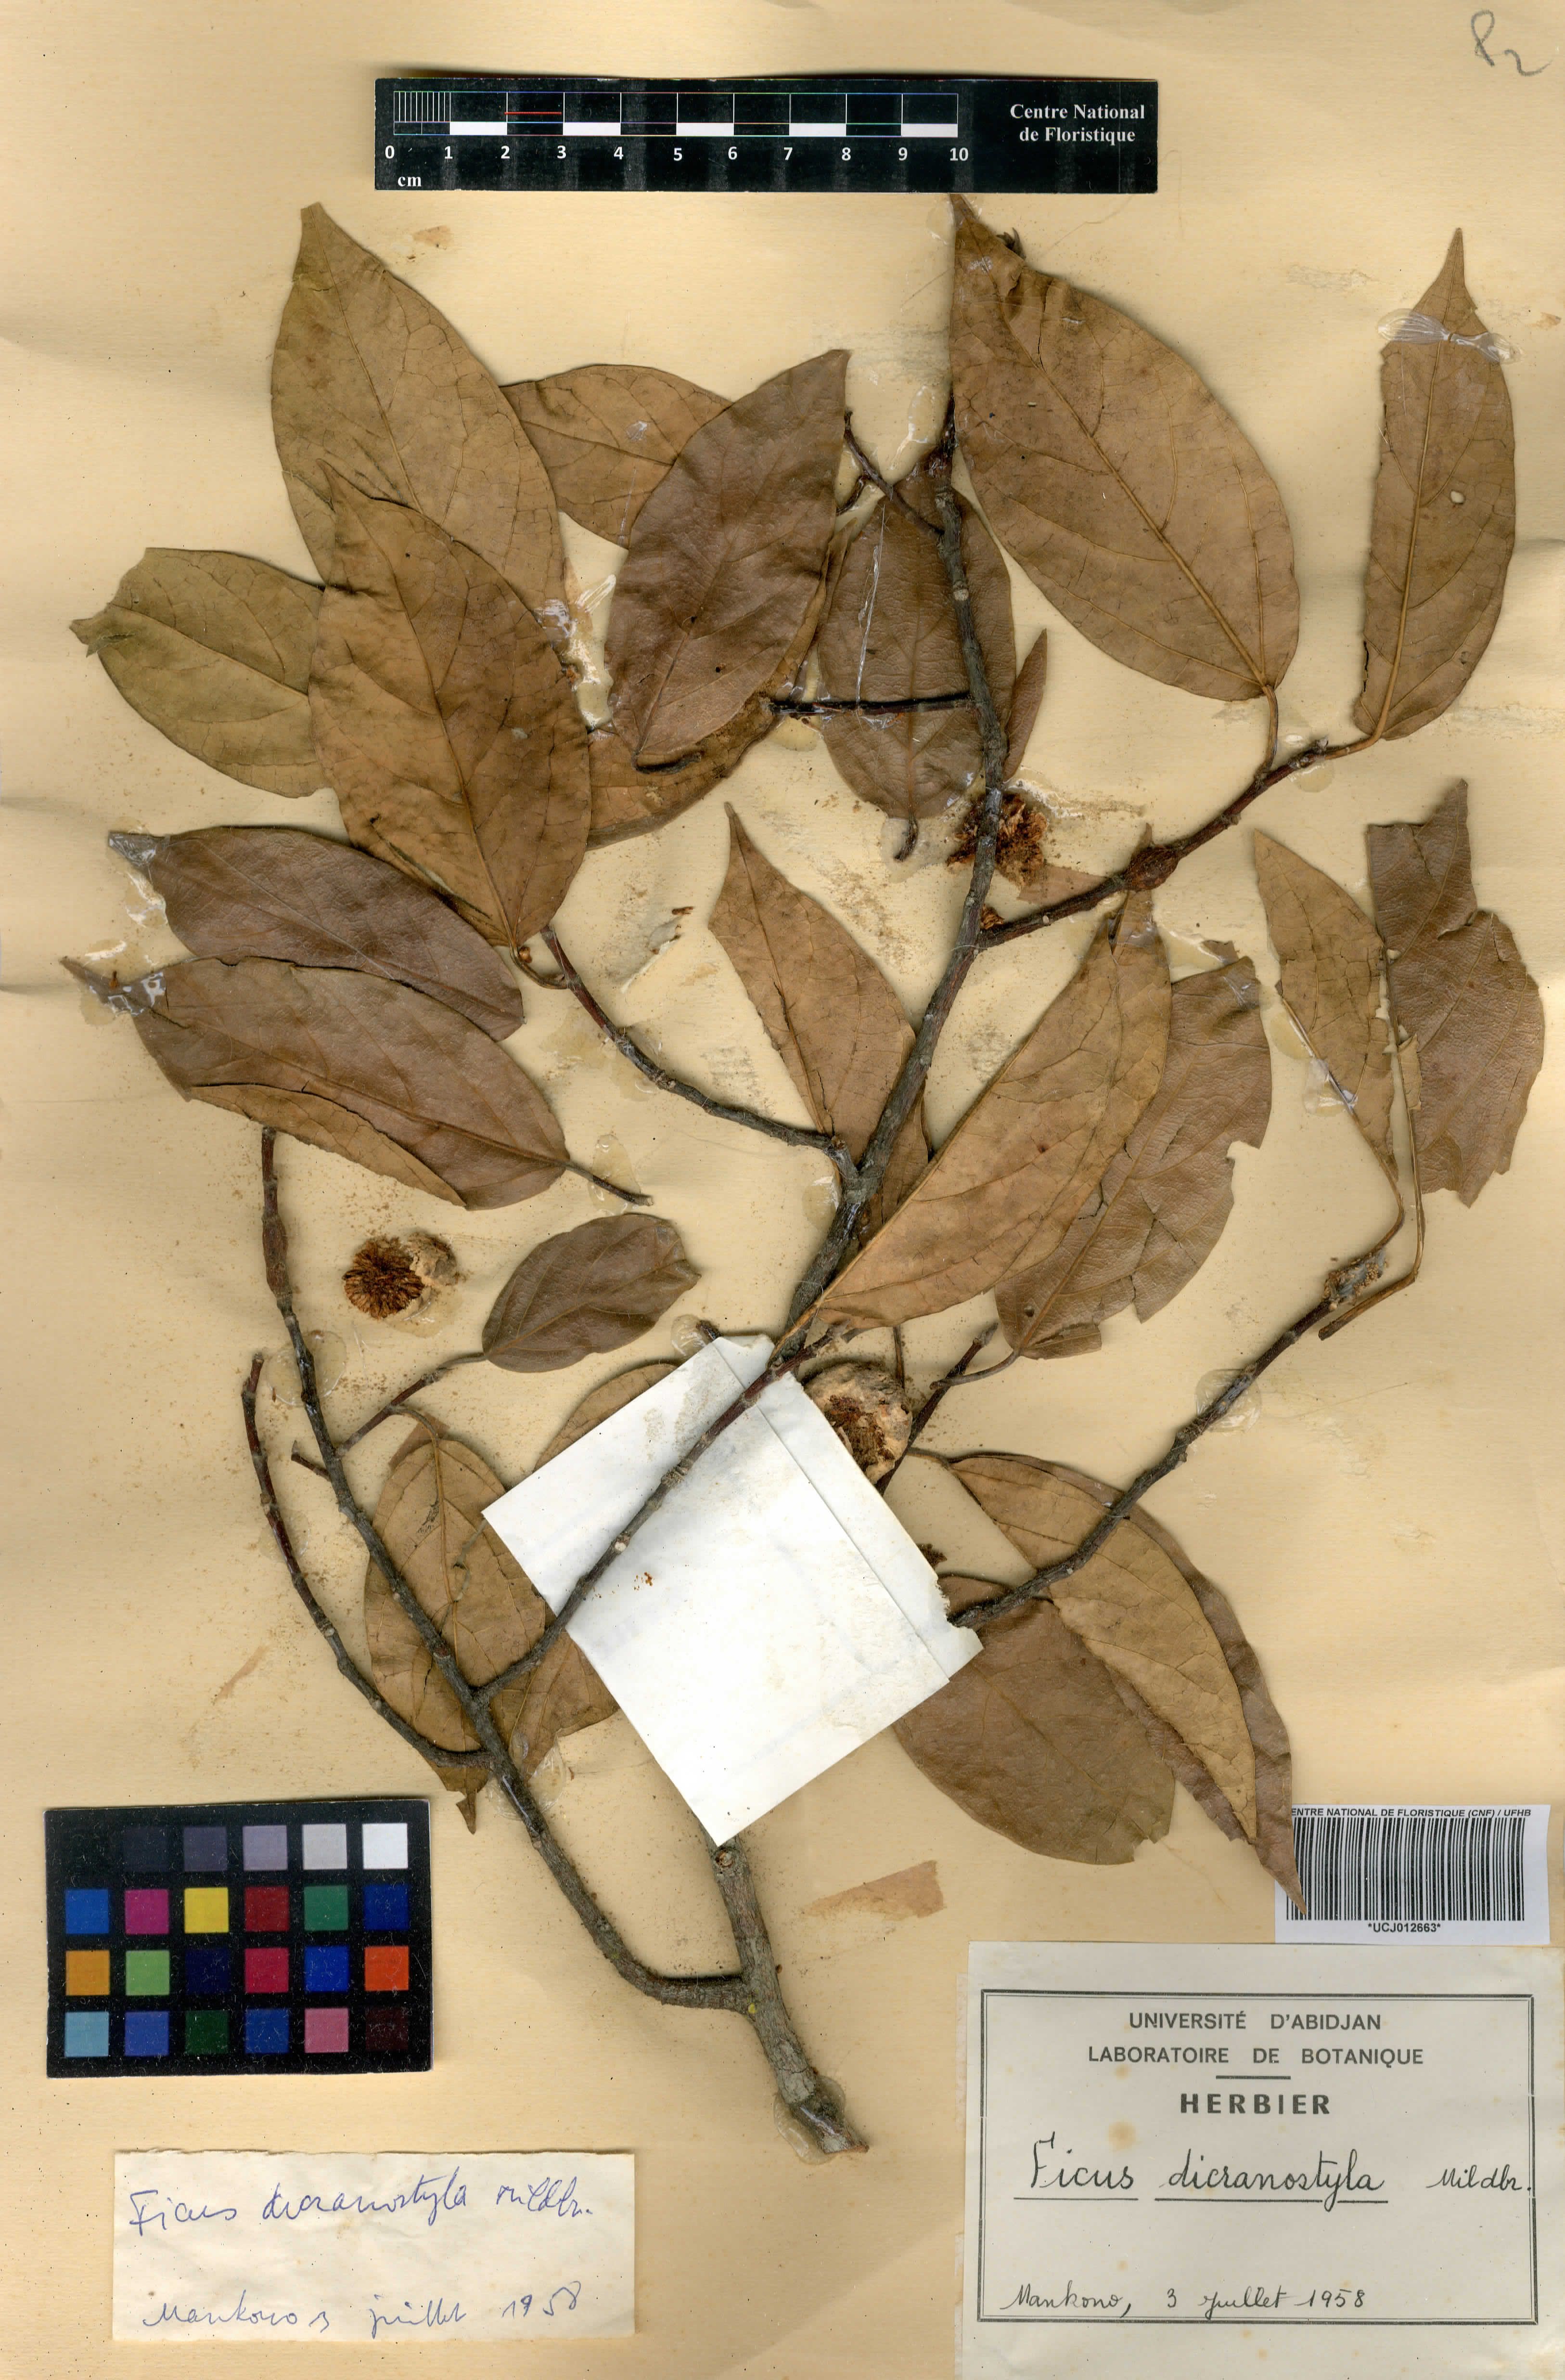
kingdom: Plantae
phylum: Tracheophyta
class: Magnoliopsida
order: Rosales
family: Moraceae
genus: Ficus
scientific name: Ficus dicranostyla
